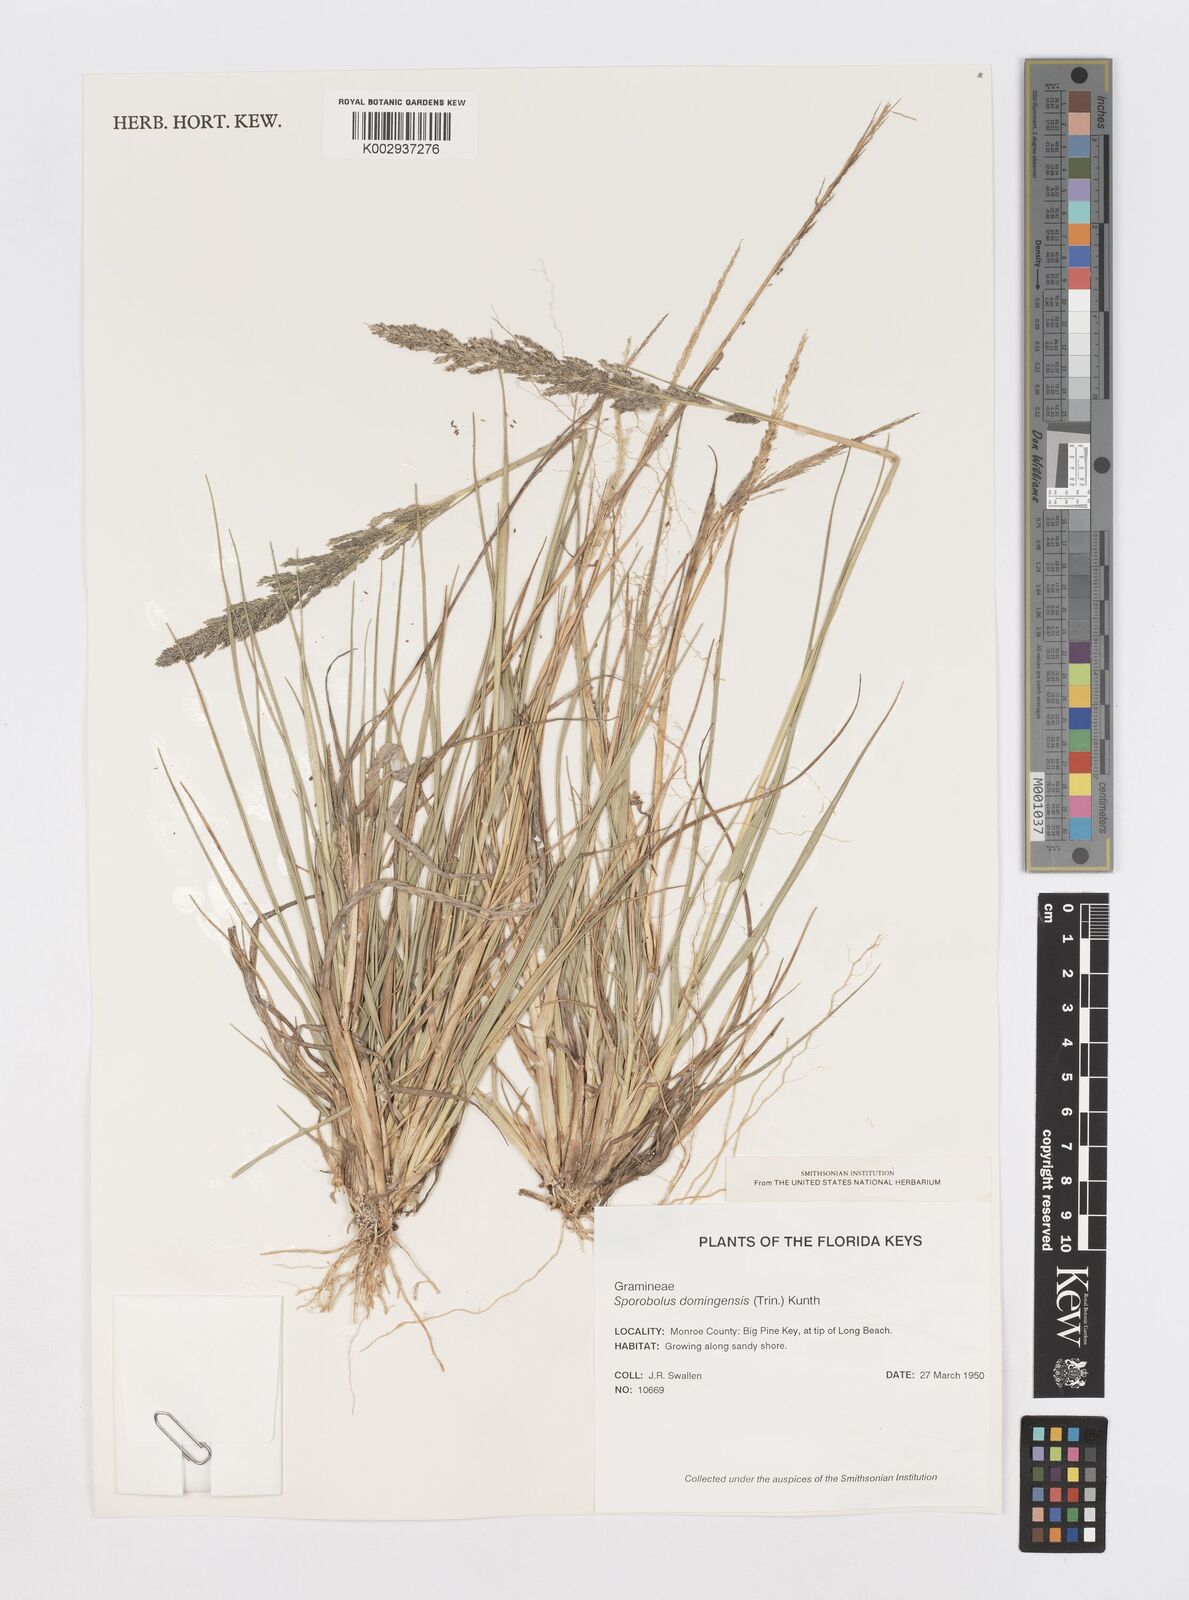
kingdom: Plantae
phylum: Tracheophyta
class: Liliopsida
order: Poales
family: Poaceae
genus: Sporobolus
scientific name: Sporobolus domingensis
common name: Coral dropseed
